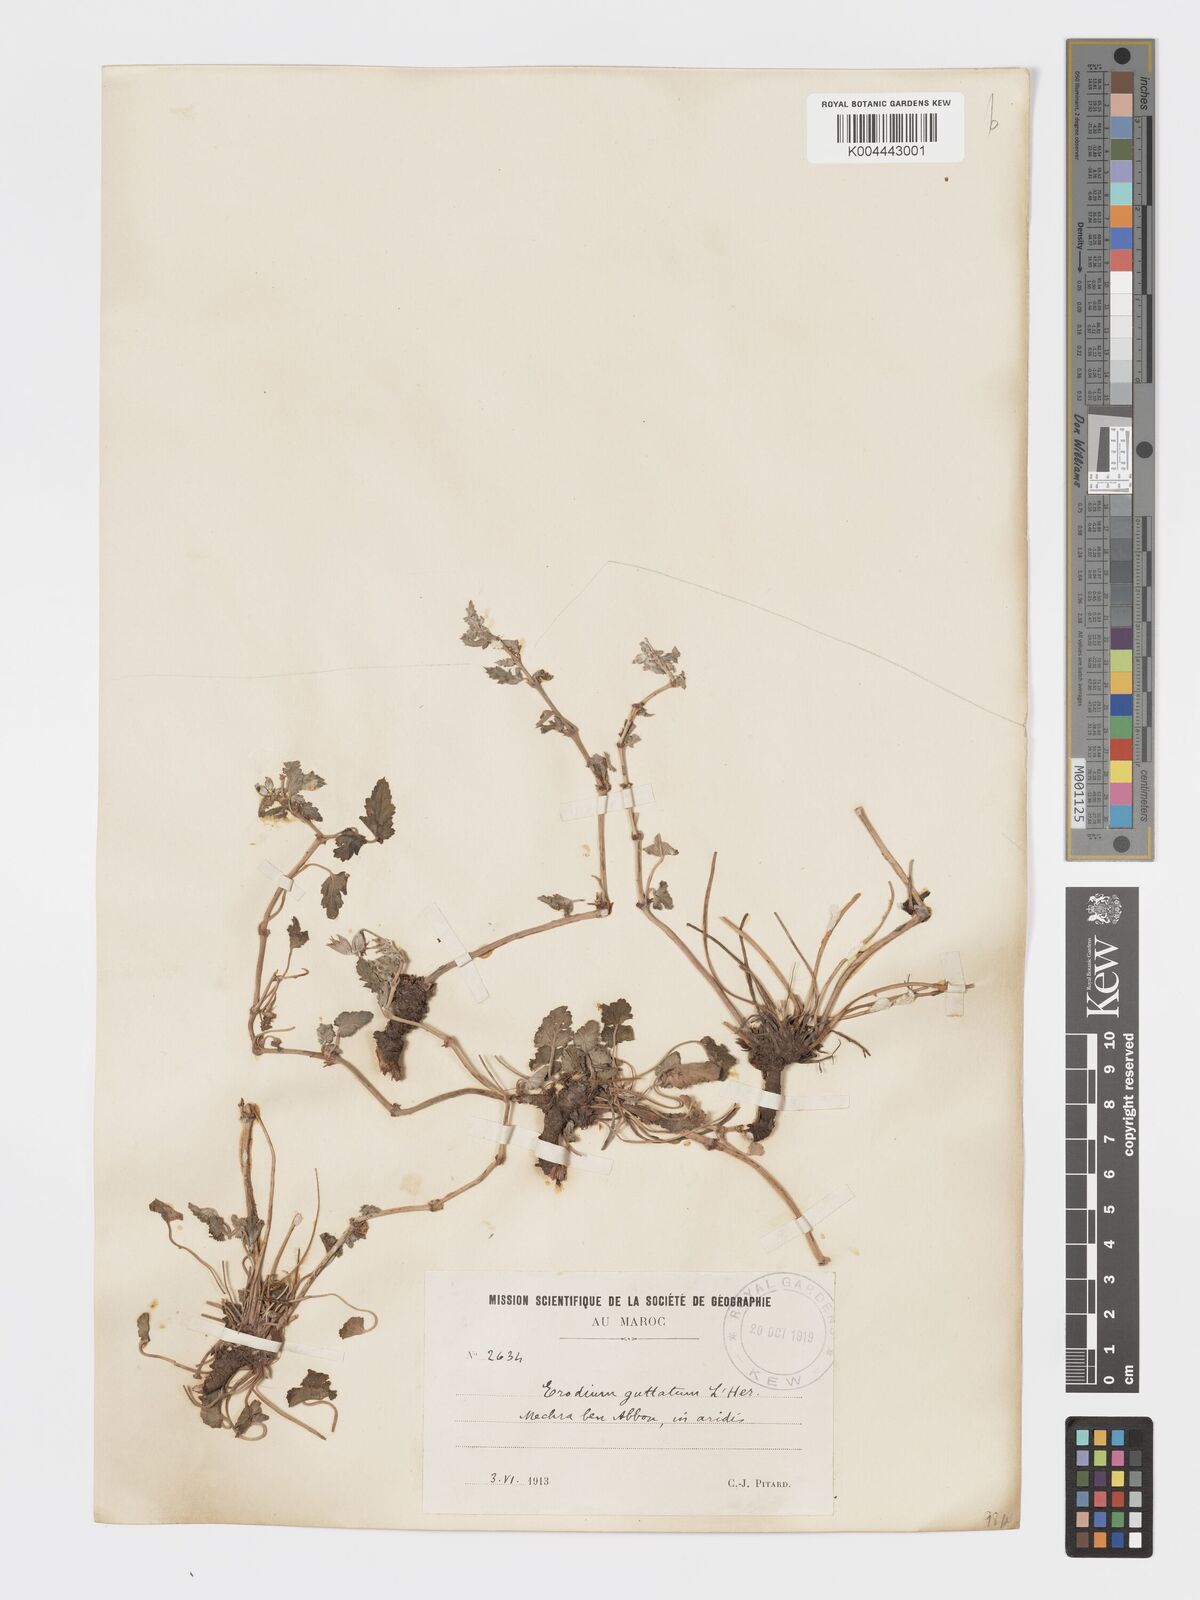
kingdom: Plantae
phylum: Tracheophyta
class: Magnoliopsida
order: Geraniales
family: Geraniaceae
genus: Erodium
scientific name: Erodium guttatum
